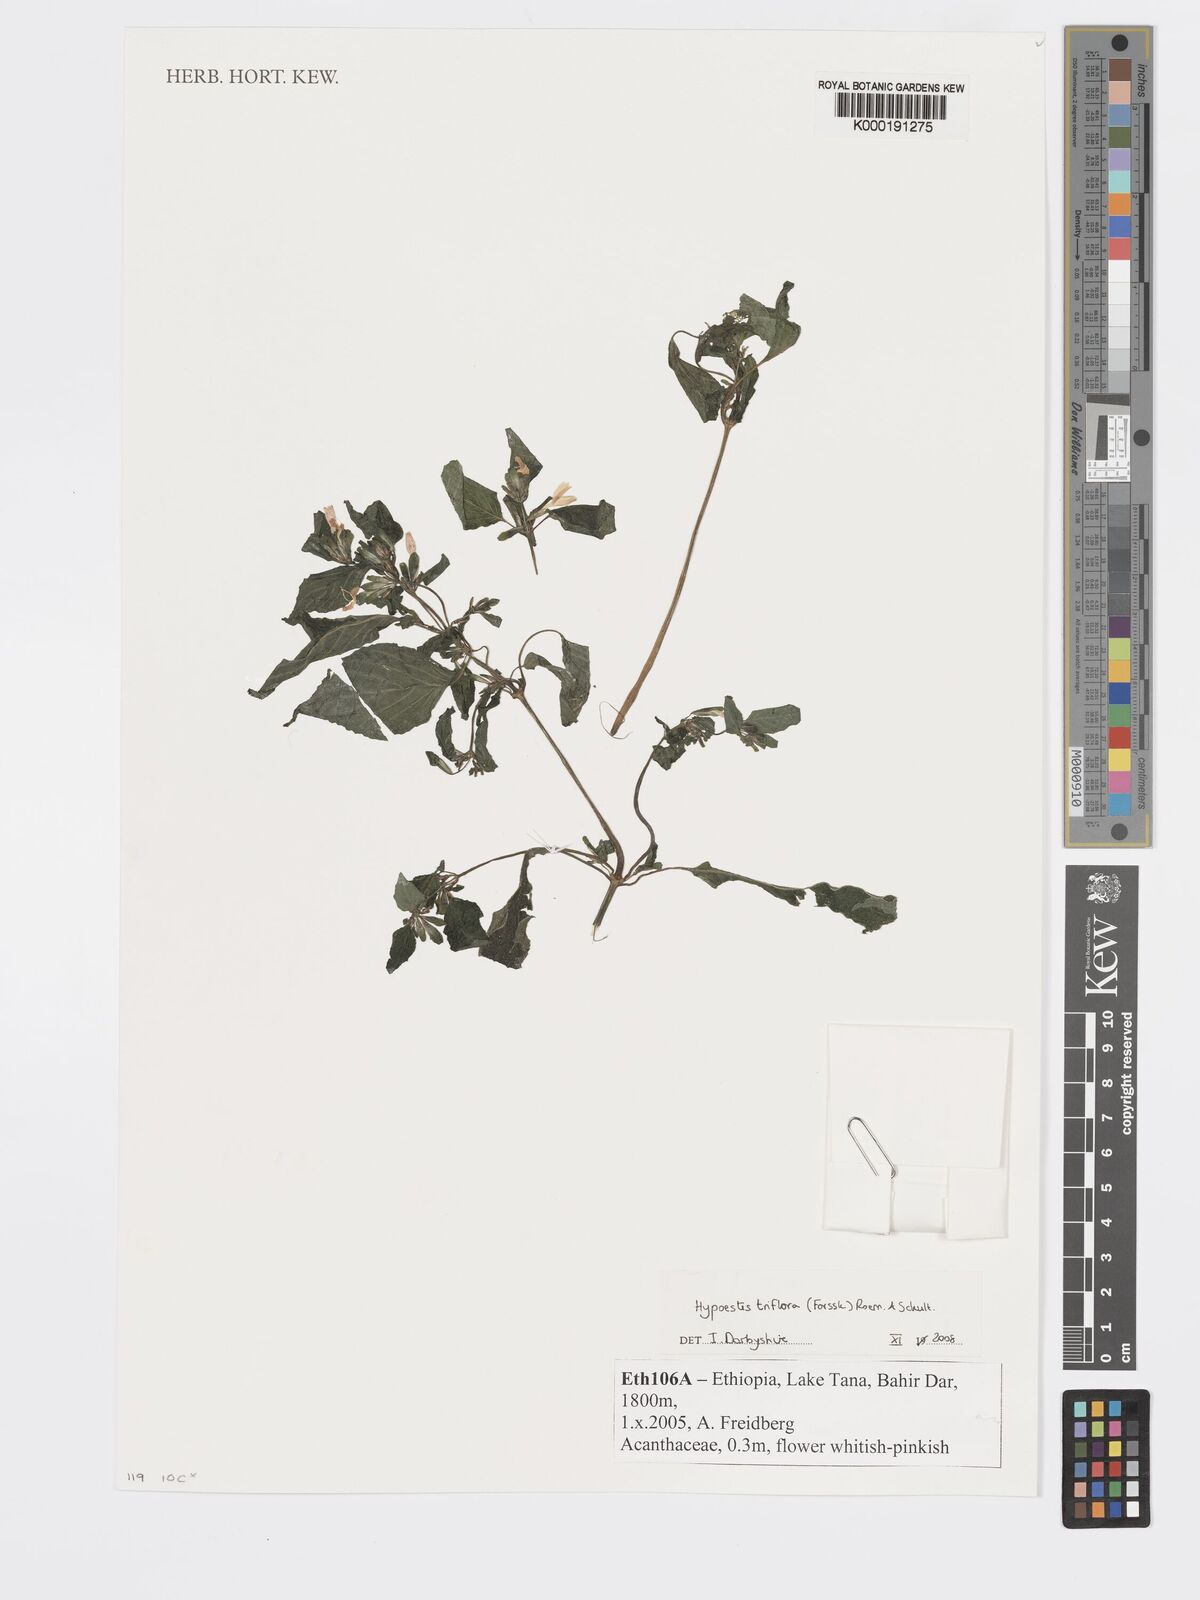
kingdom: Plantae
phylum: Tracheophyta
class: Magnoliopsida
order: Lamiales
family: Acanthaceae
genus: Hypoestes
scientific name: Hypoestes triflora
